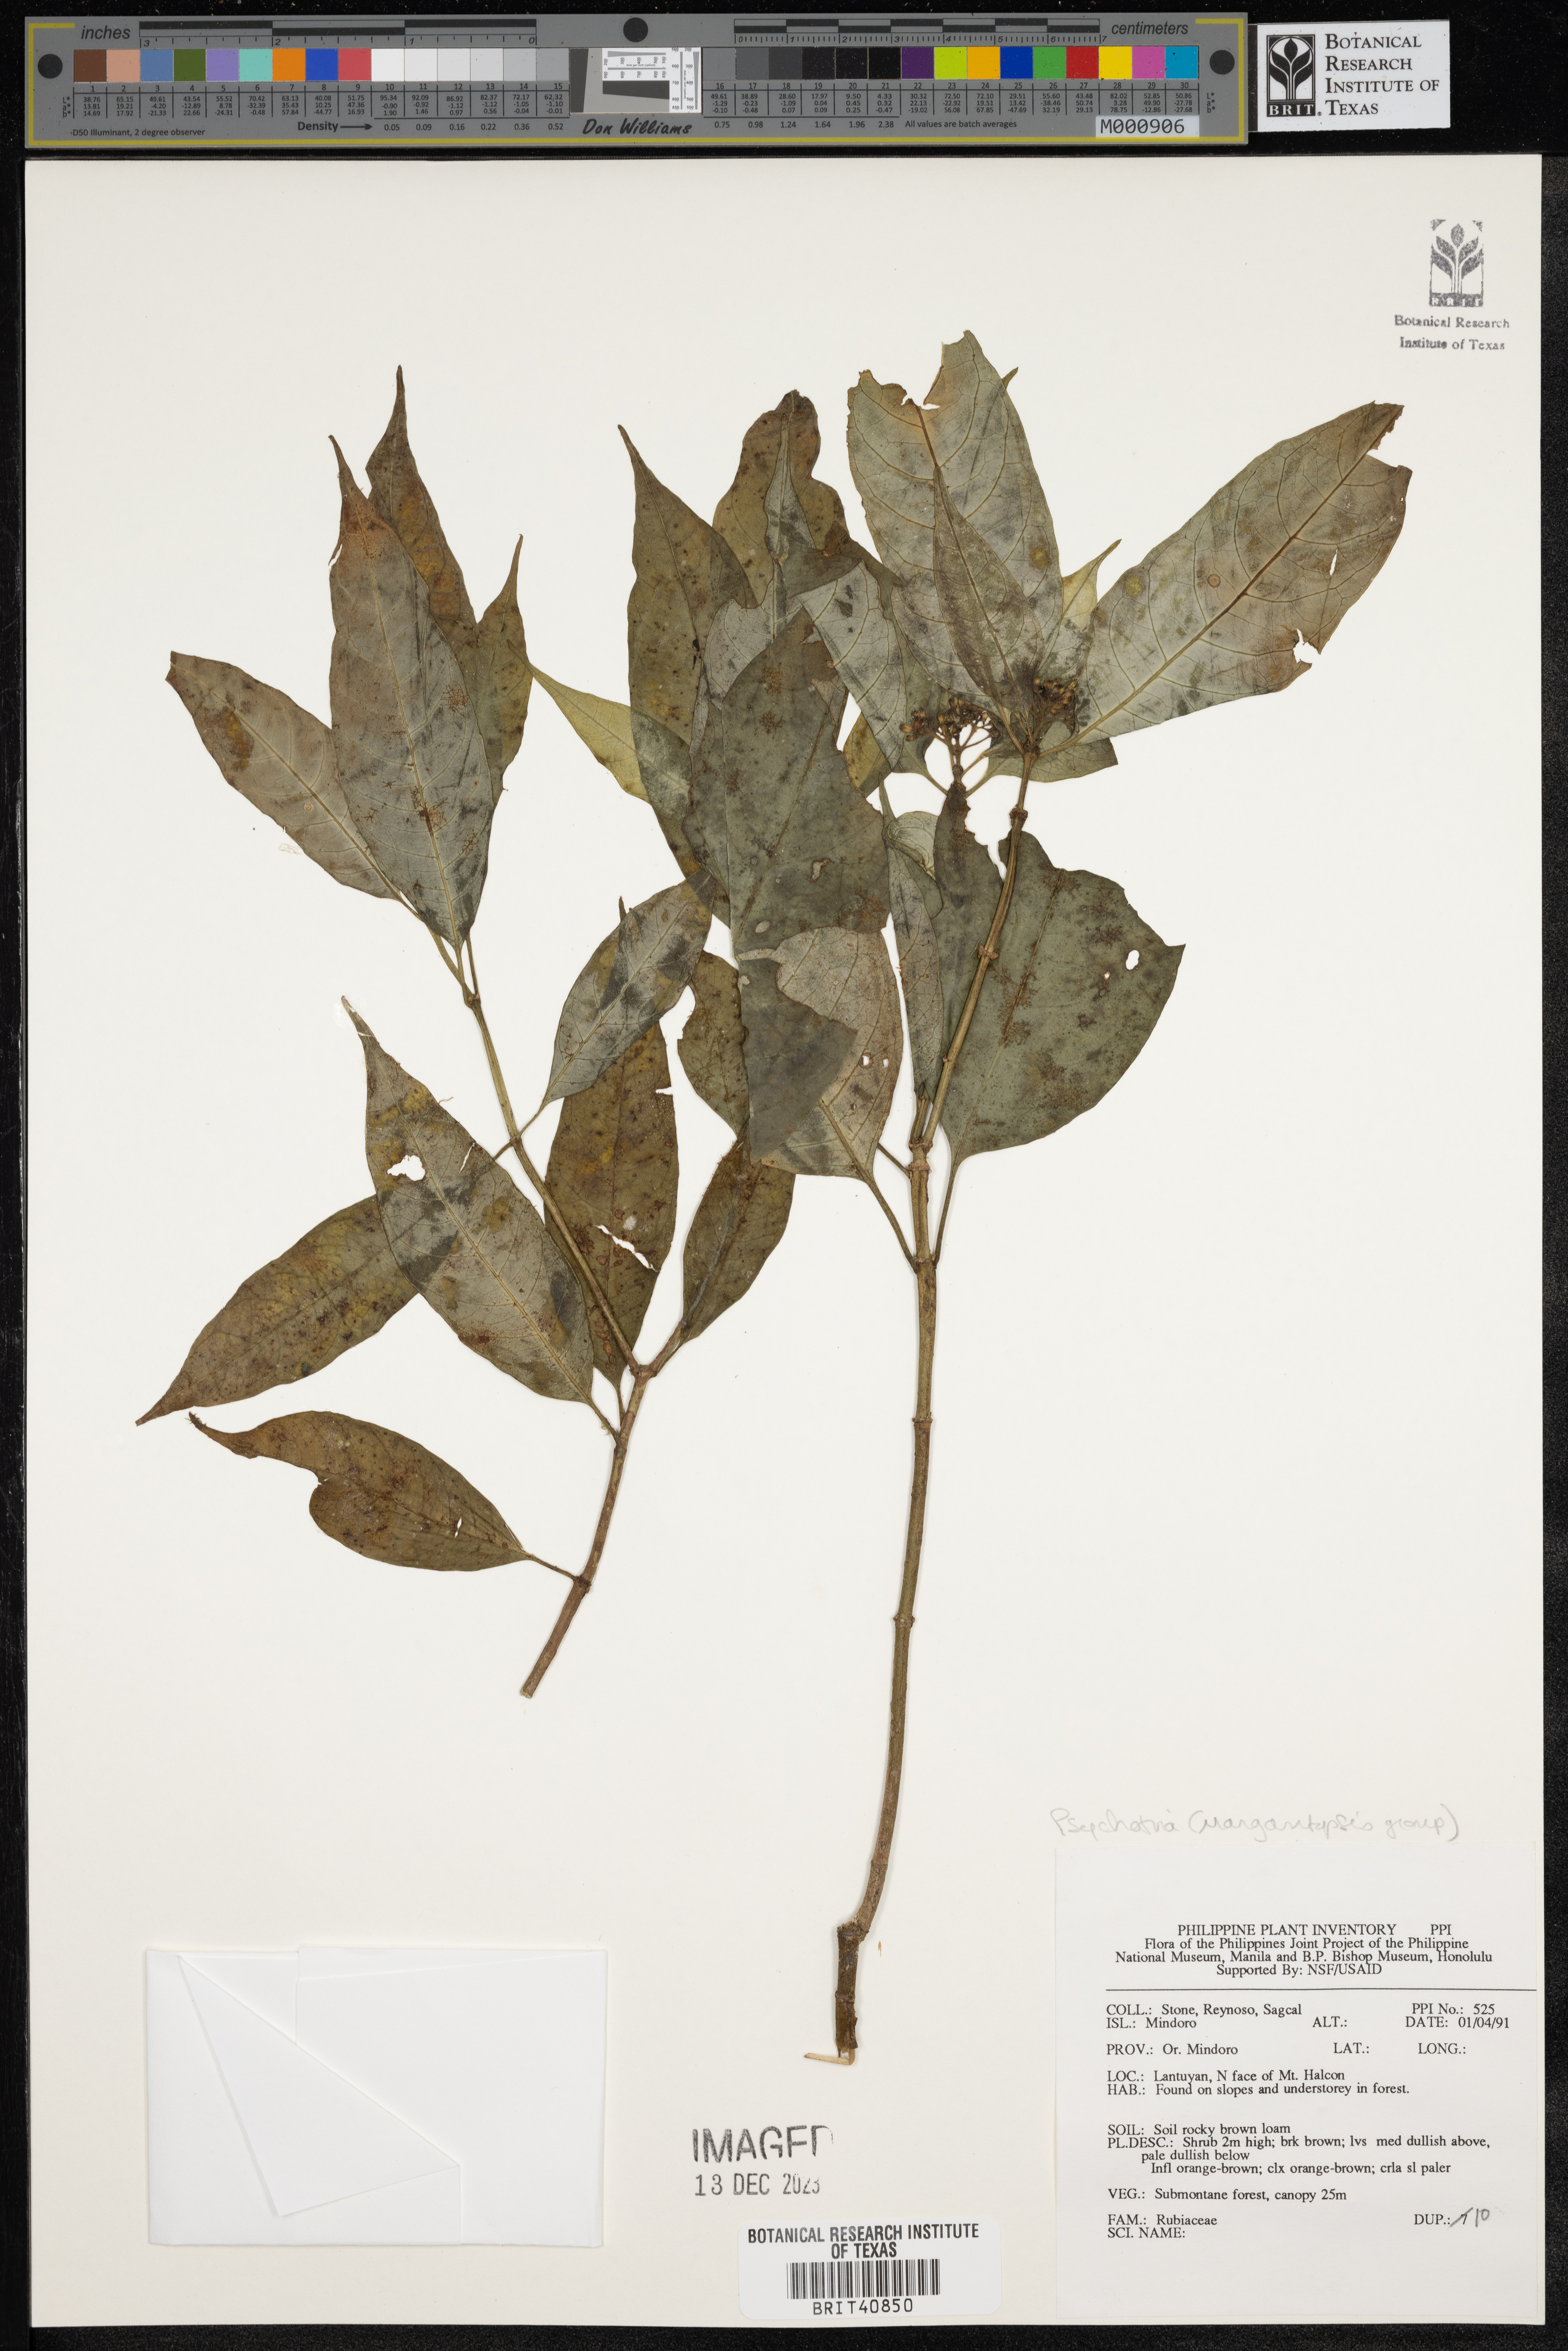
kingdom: Plantae
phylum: Tracheophyta
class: Magnoliopsida
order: Gentianales
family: Rubiaceae
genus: Psychotria
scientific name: Psychotria
